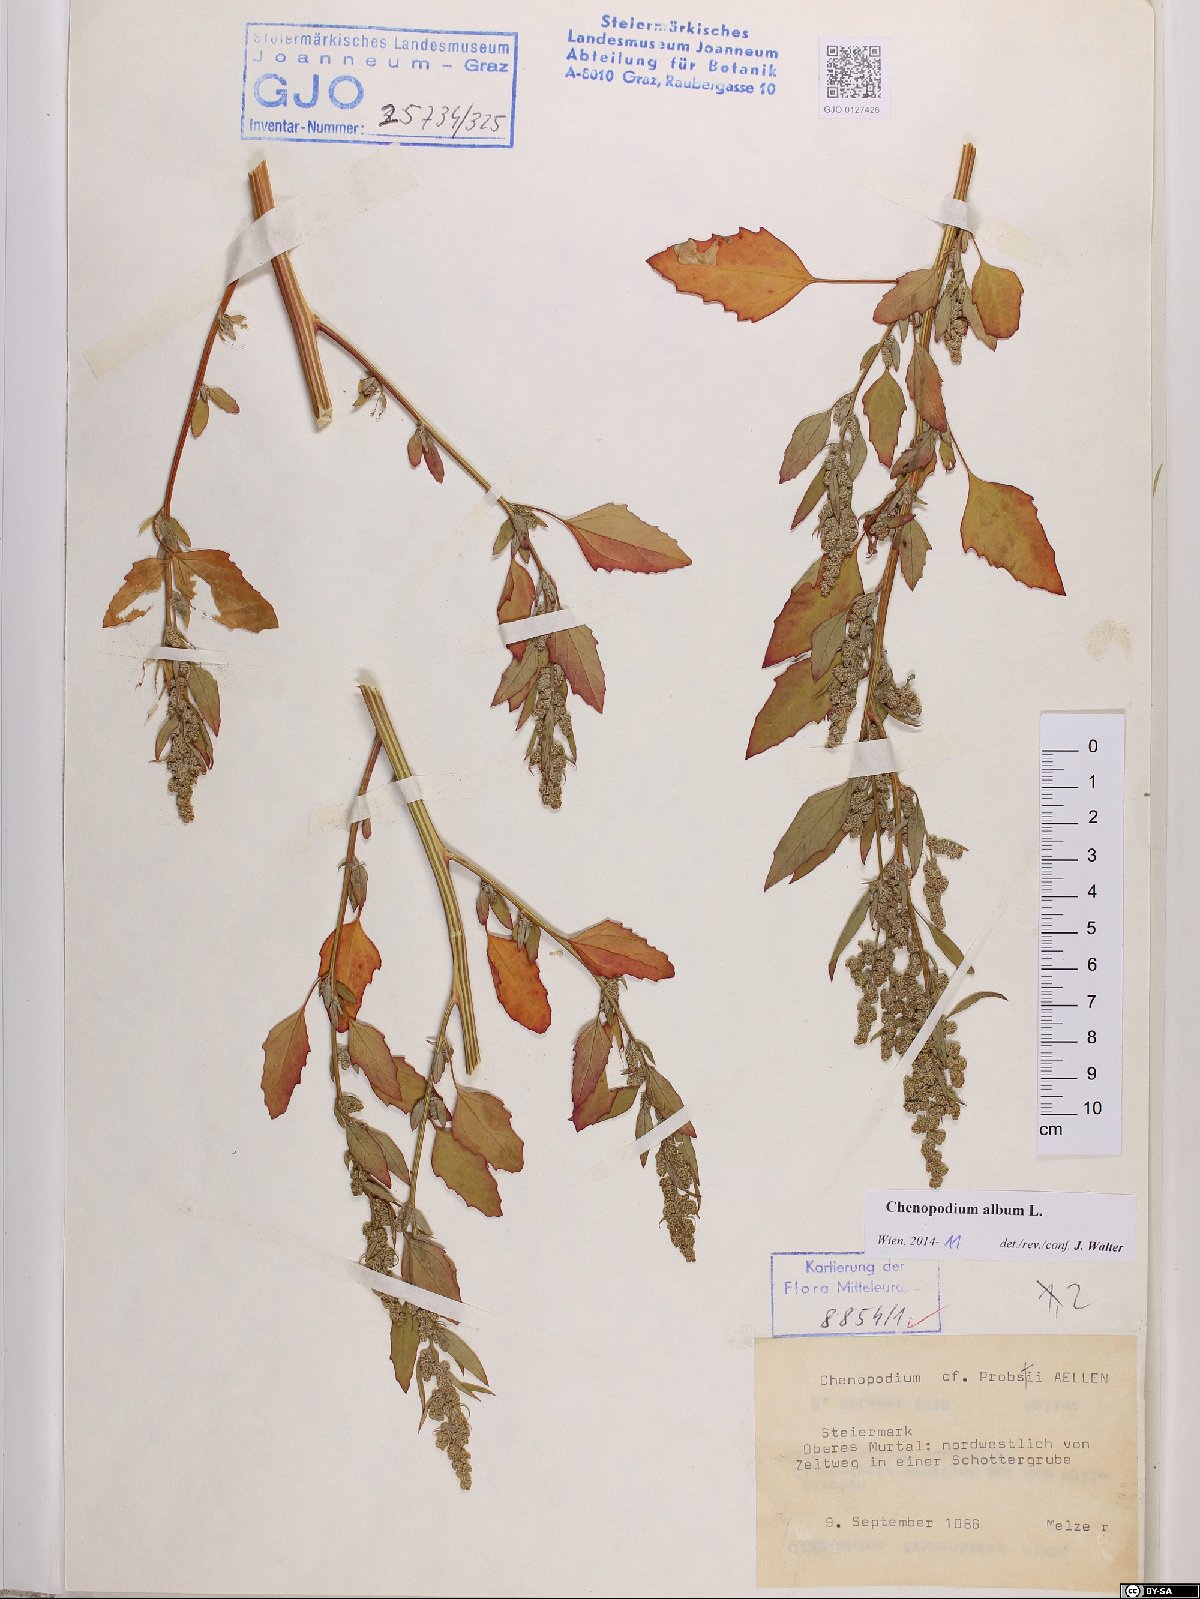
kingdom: Plantae
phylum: Tracheophyta
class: Magnoliopsida
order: Caryophyllales
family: Amaranthaceae
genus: Chenopodium
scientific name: Chenopodium album
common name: Fat-hen
